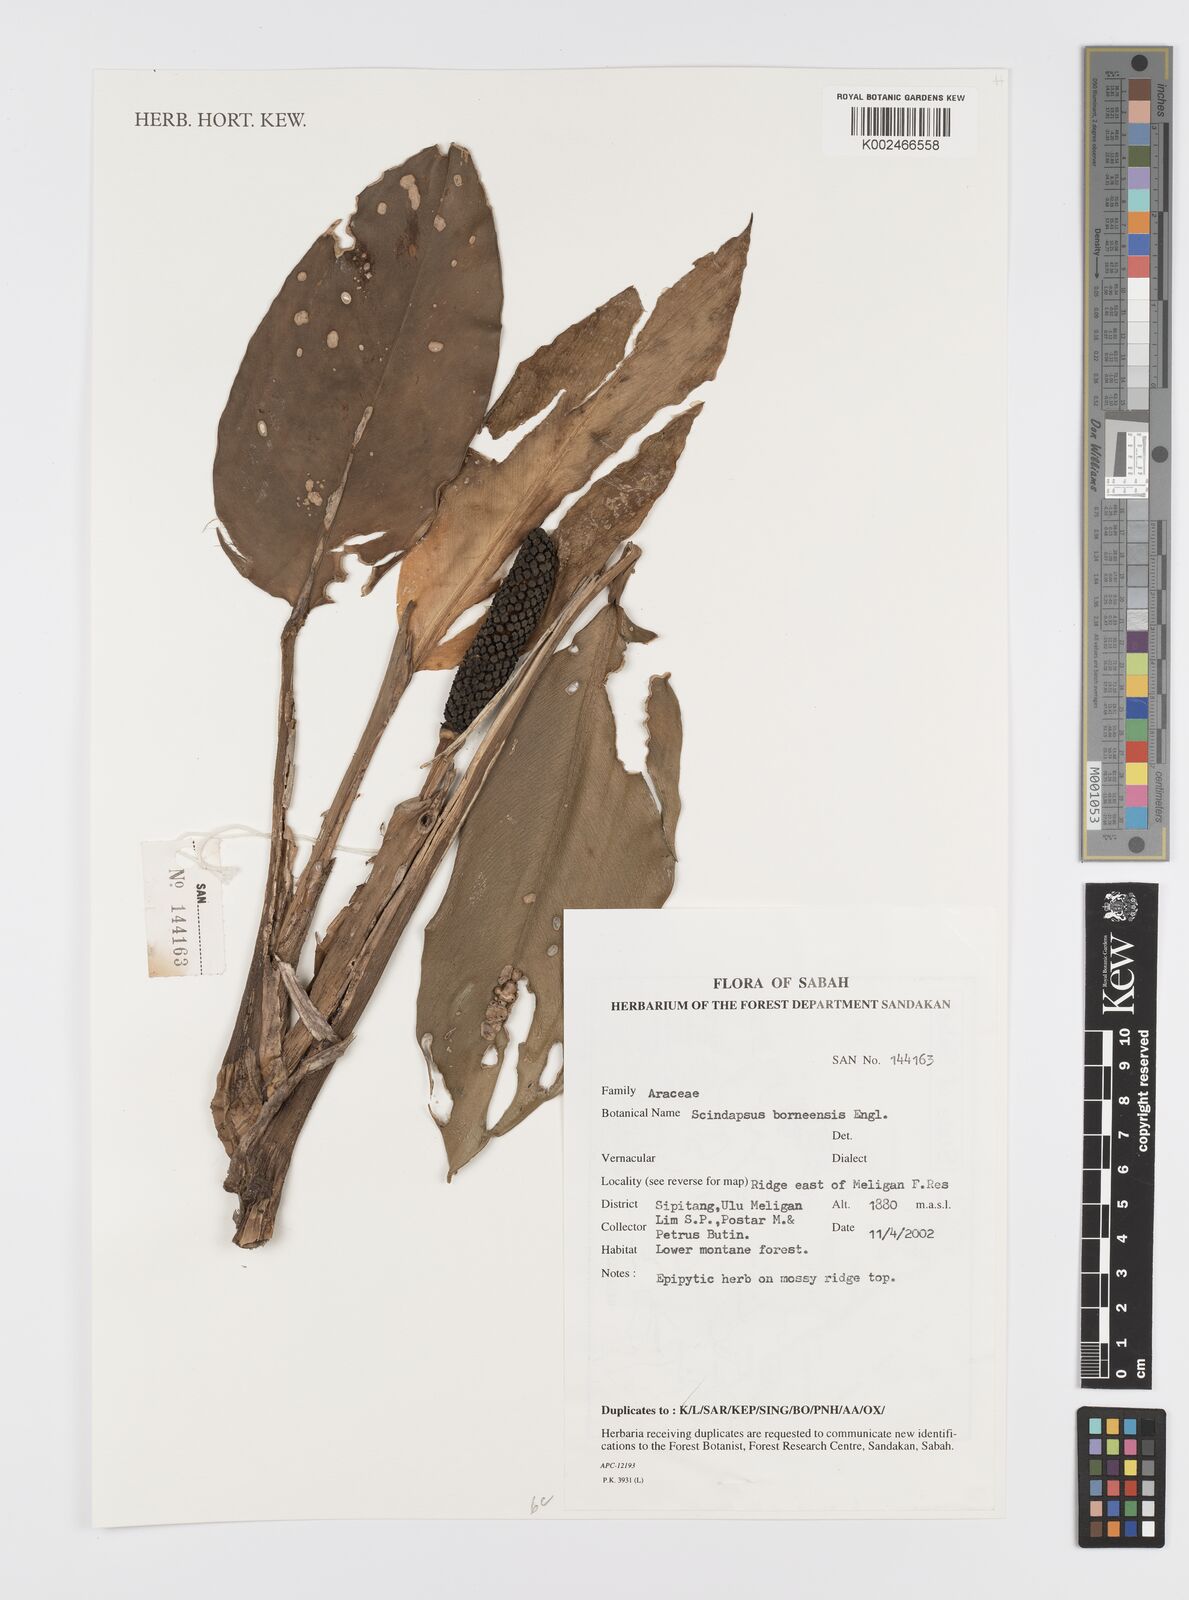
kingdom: Plantae
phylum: Tracheophyta
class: Liliopsida
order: Alismatales
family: Araceae
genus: Scindapsus
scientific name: Scindapsus coriaceus
